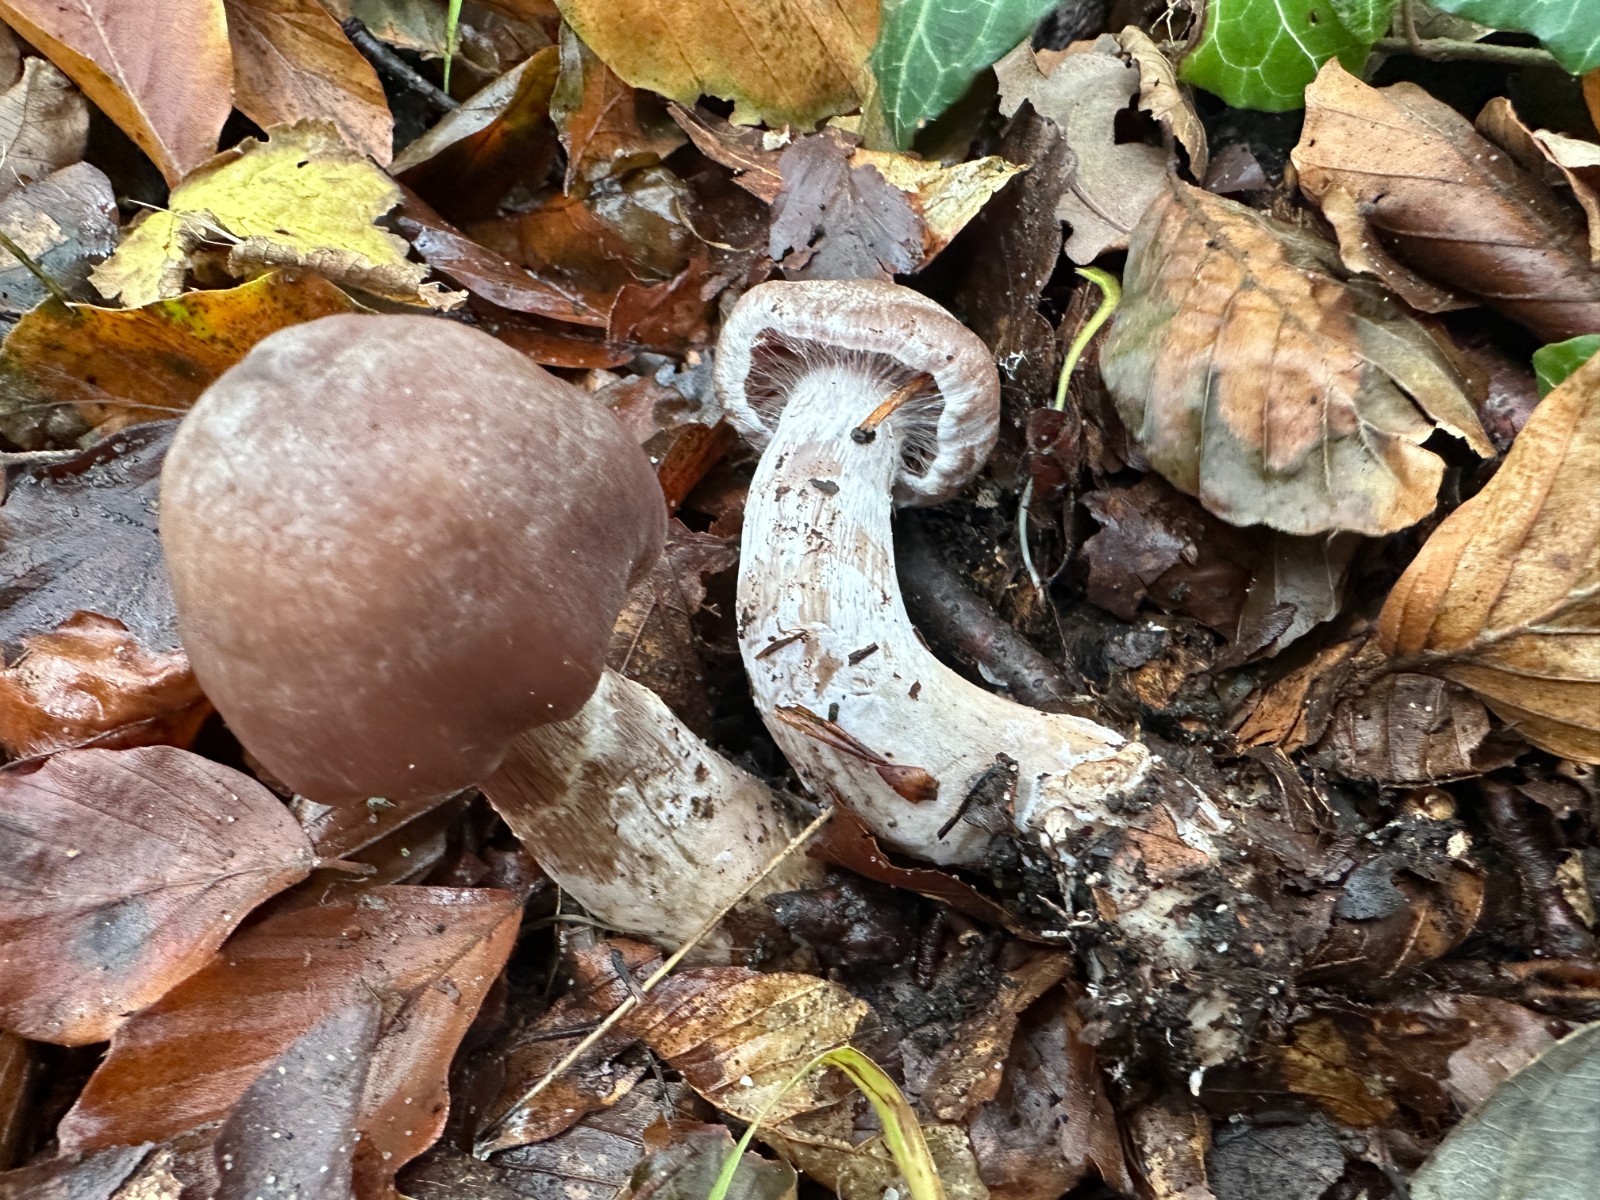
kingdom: Fungi
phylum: Basidiomycota
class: Agaricomycetes
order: Agaricales
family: Cortinariaceae
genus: Cortinarius
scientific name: Cortinarius
